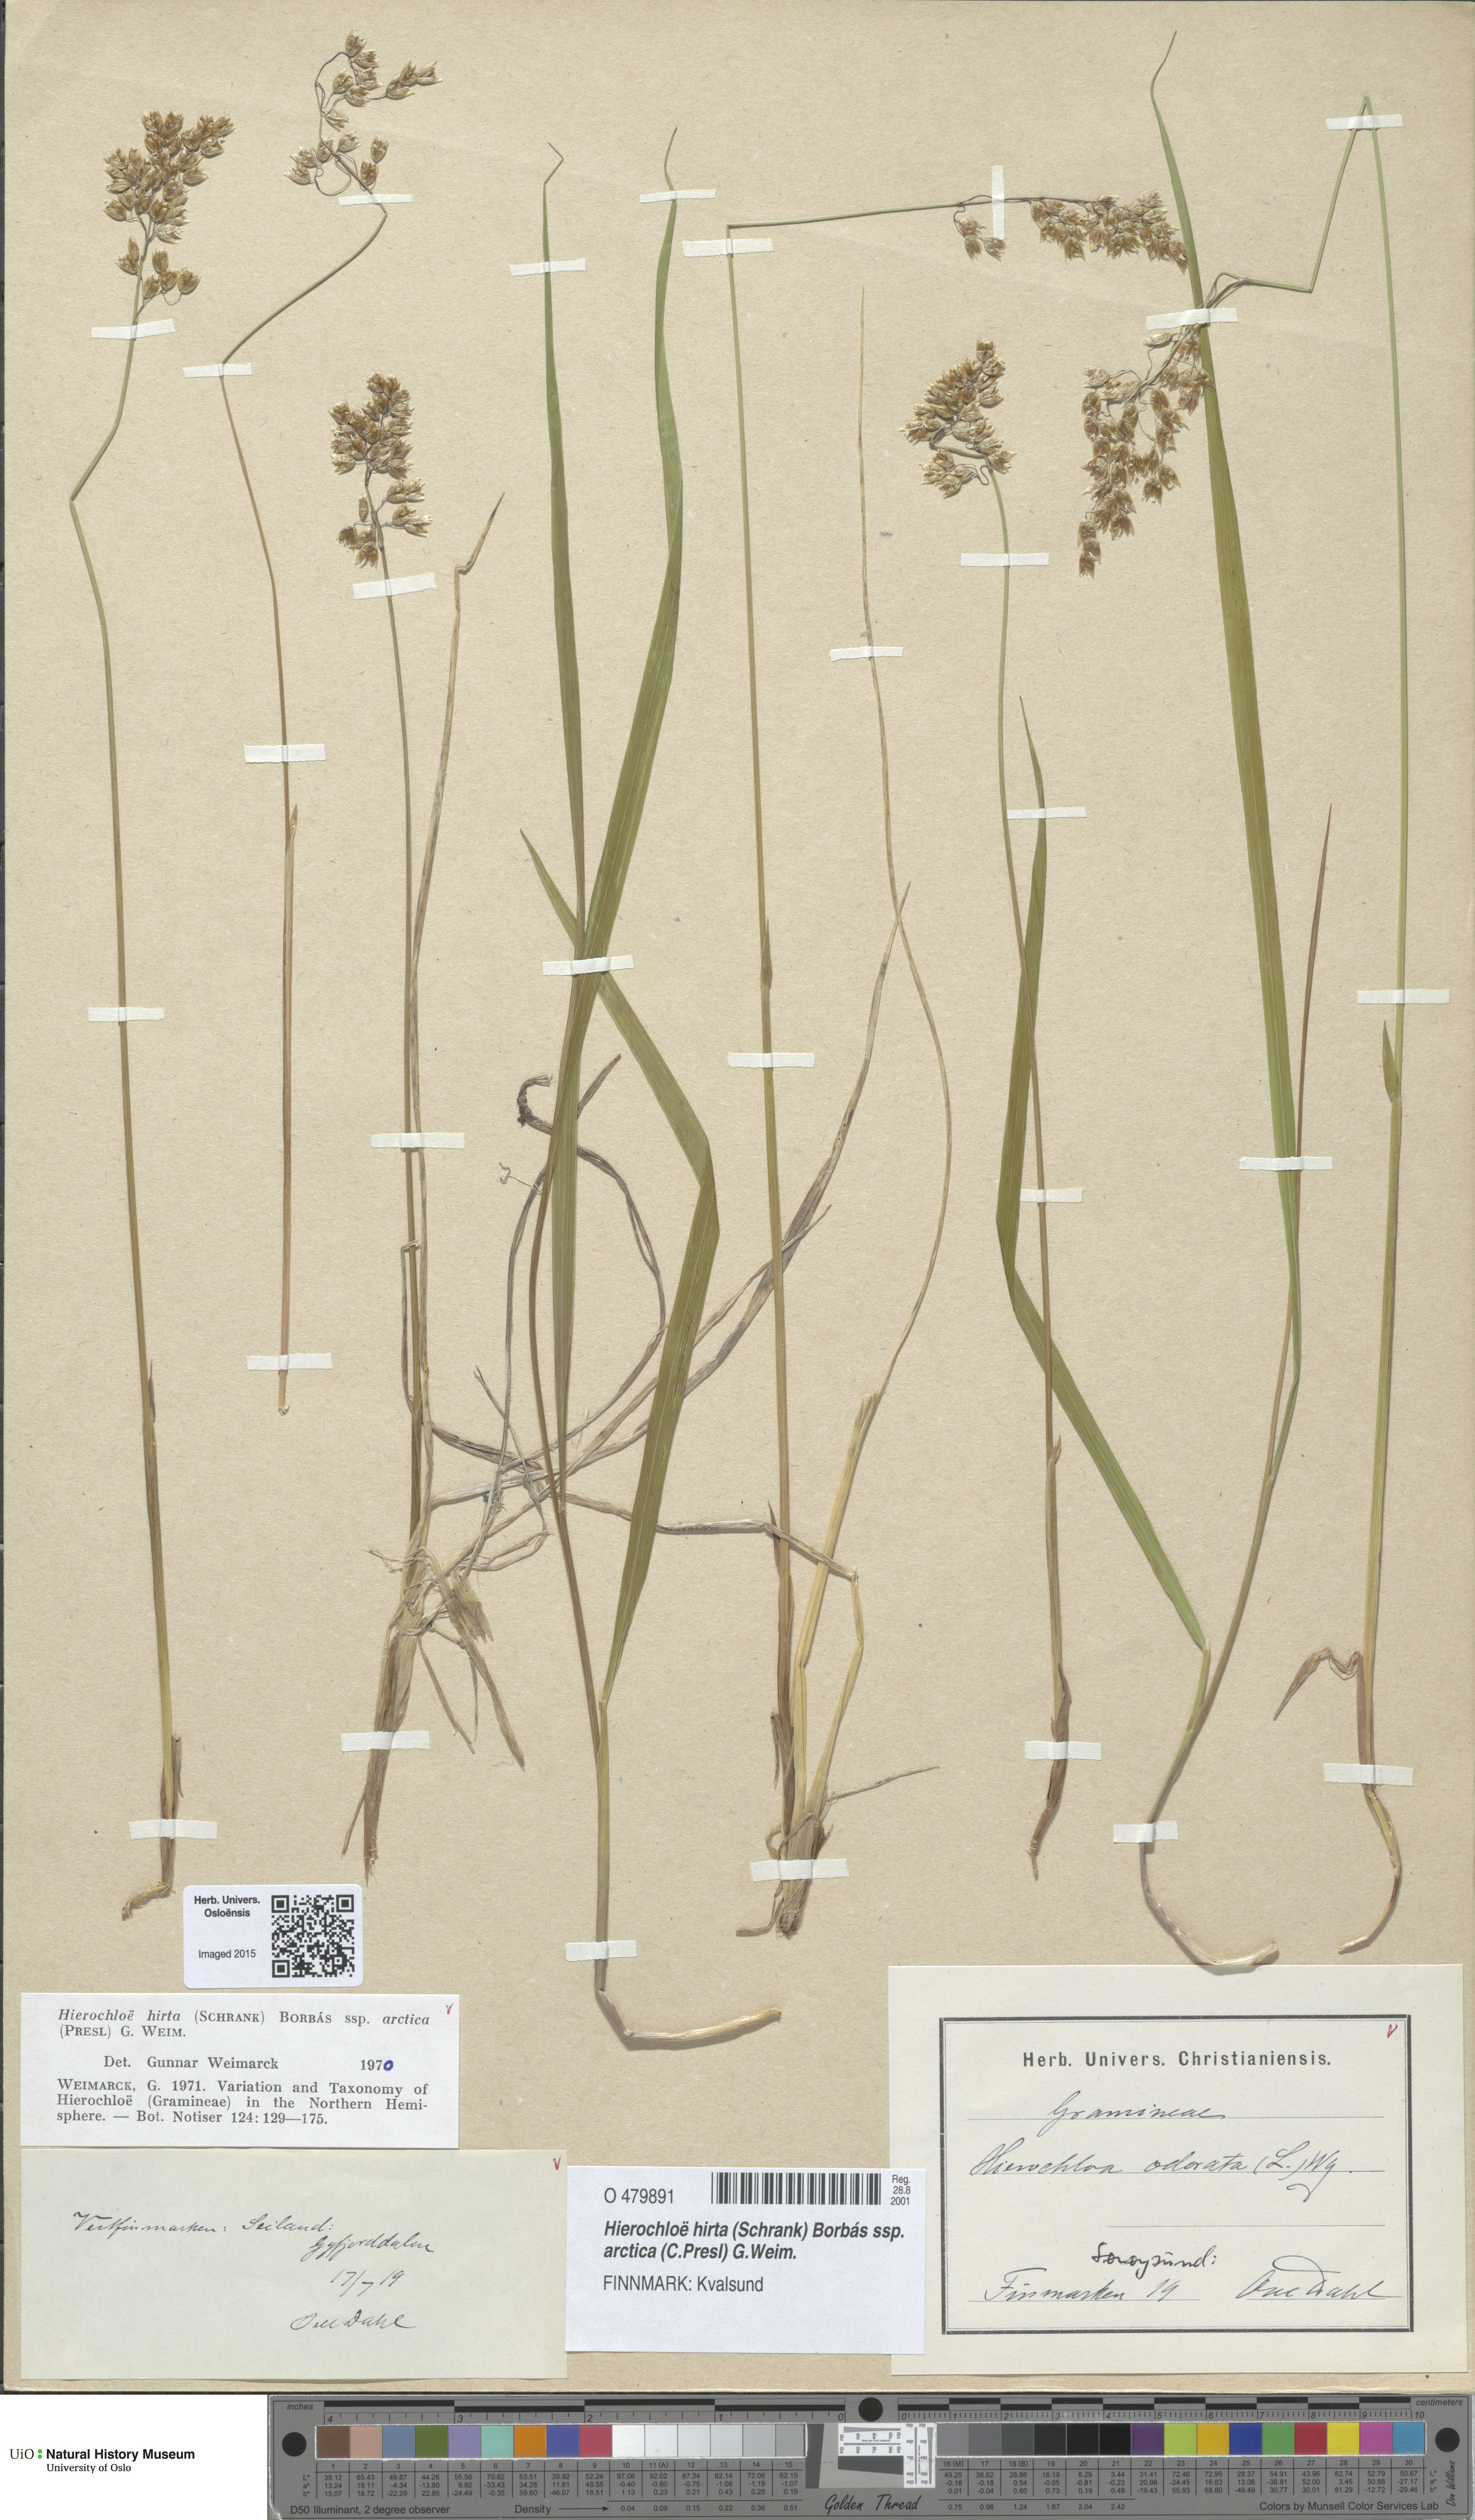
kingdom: Plantae
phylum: Tracheophyta
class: Liliopsida
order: Poales
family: Poaceae
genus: Anthoxanthum
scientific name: Anthoxanthum nitens
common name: Holy grass
